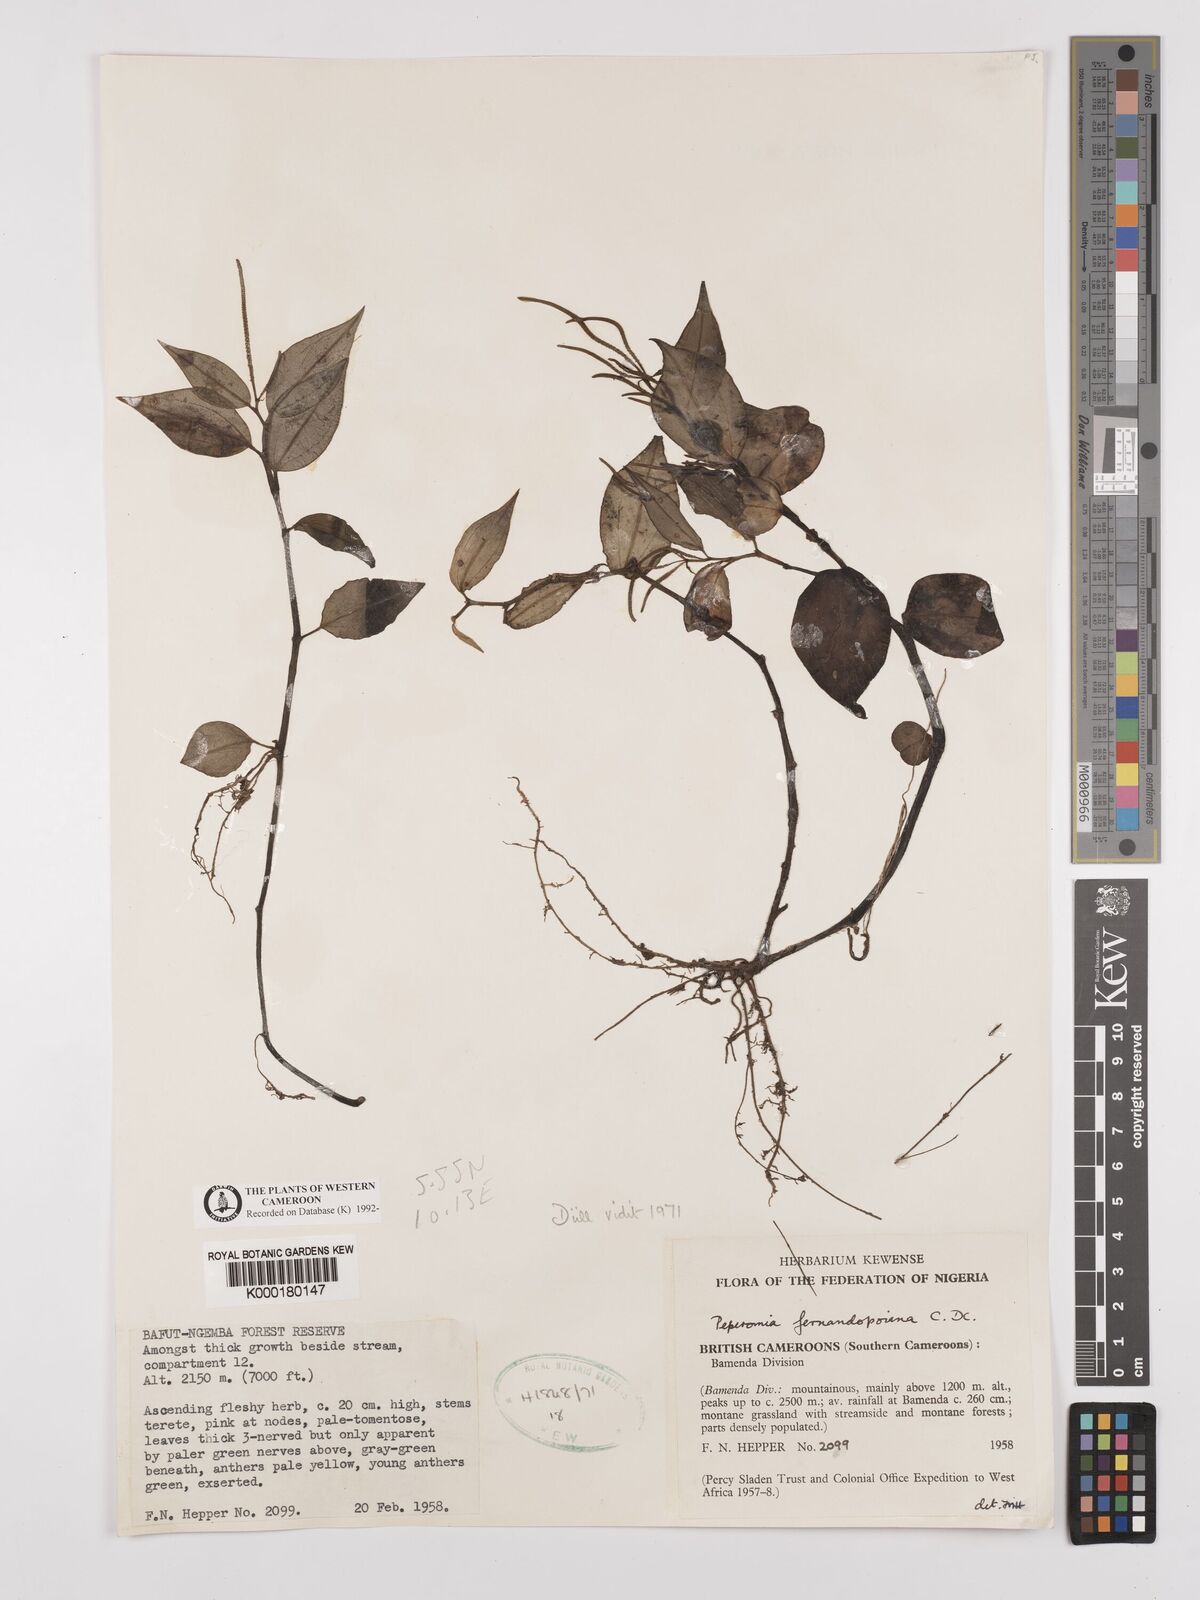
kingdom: Plantae
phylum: Tracheophyta
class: Magnoliopsida
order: Piperales
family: Piperaceae
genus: Peperomia
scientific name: Peperomia fernandopoiana
